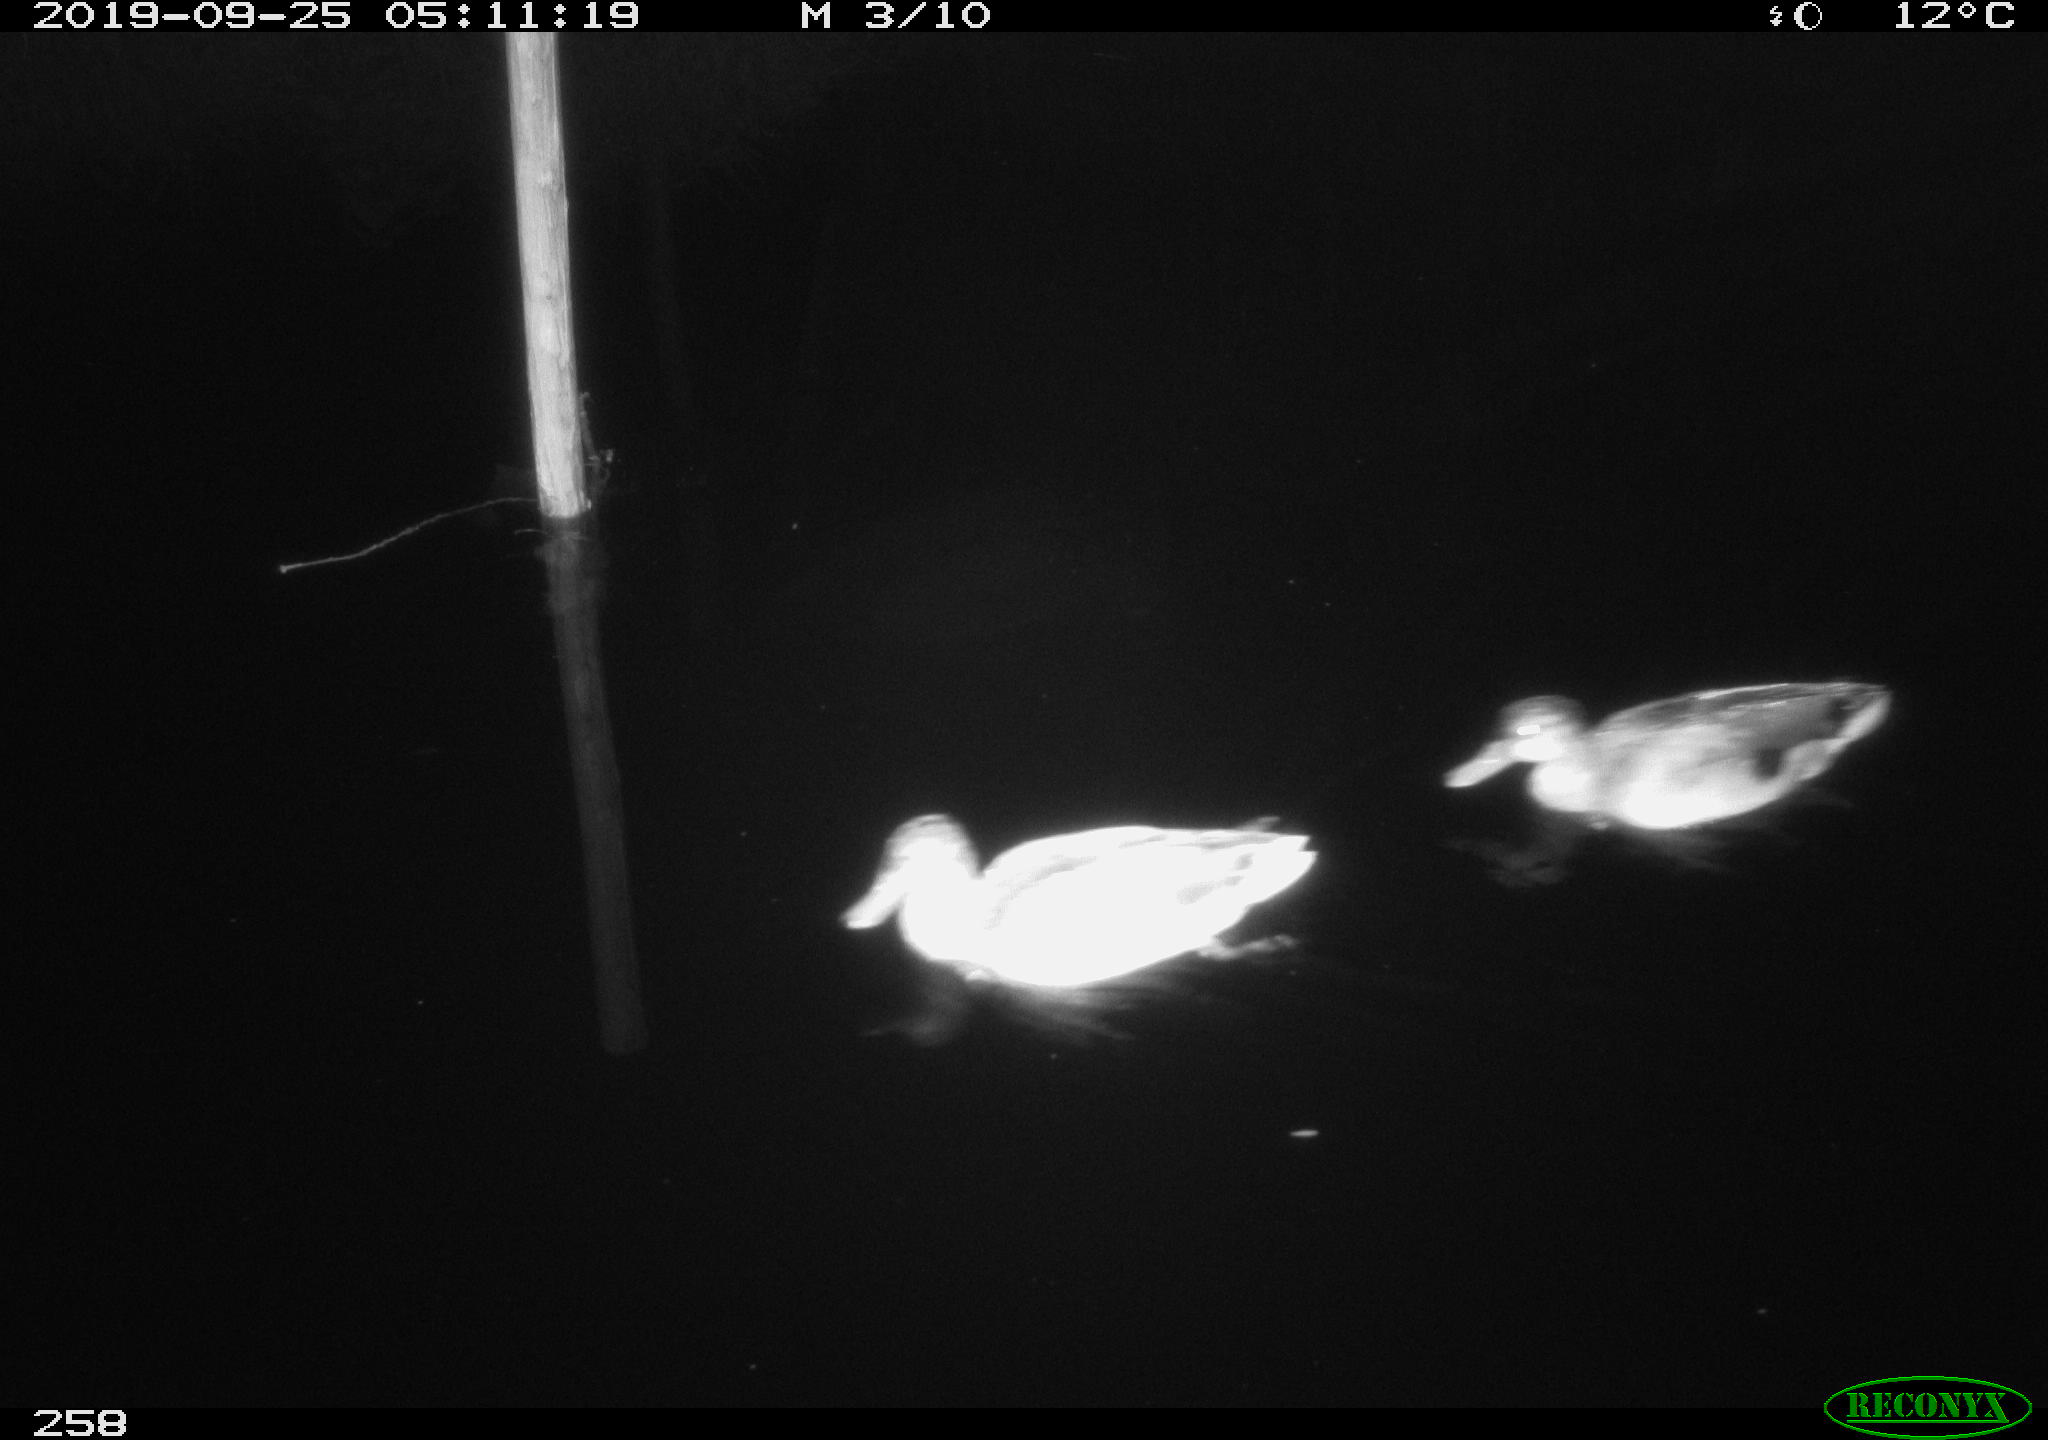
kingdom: Animalia
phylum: Chordata
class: Aves
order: Anseriformes
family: Anatidae
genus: Anas
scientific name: Anas platyrhynchos
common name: Mallard
